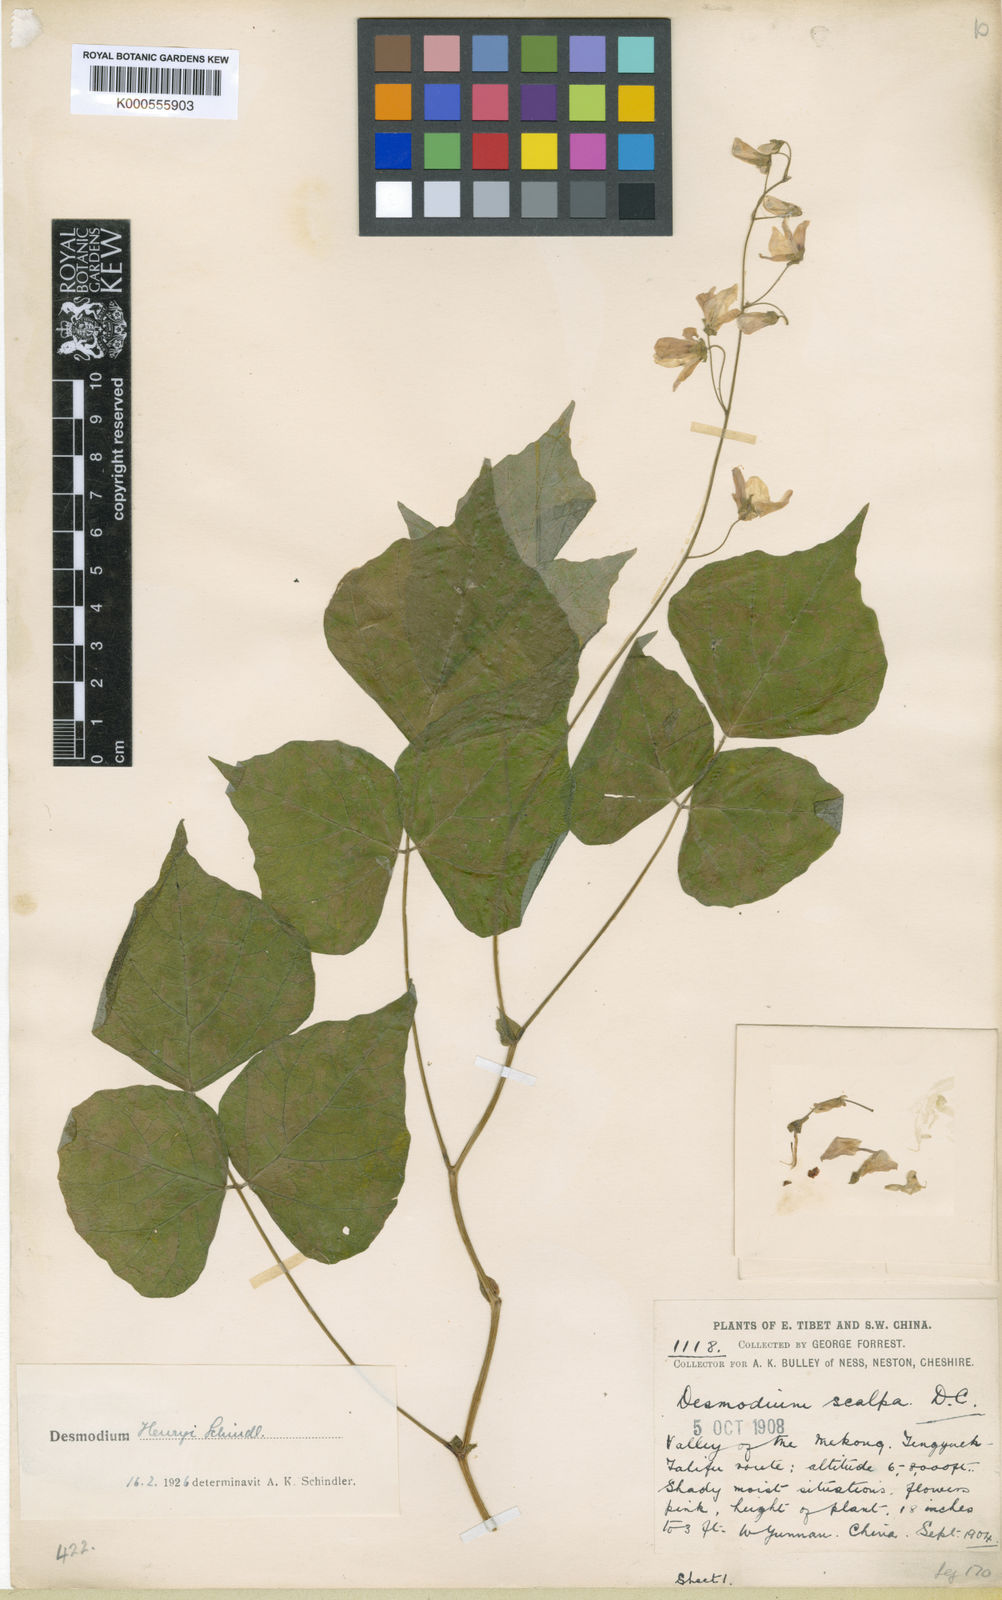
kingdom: Plantae
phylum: Tracheophyta
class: Magnoliopsida
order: Fabales
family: Fabaceae
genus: Hylodesmum
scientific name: Hylodesmum longipes
